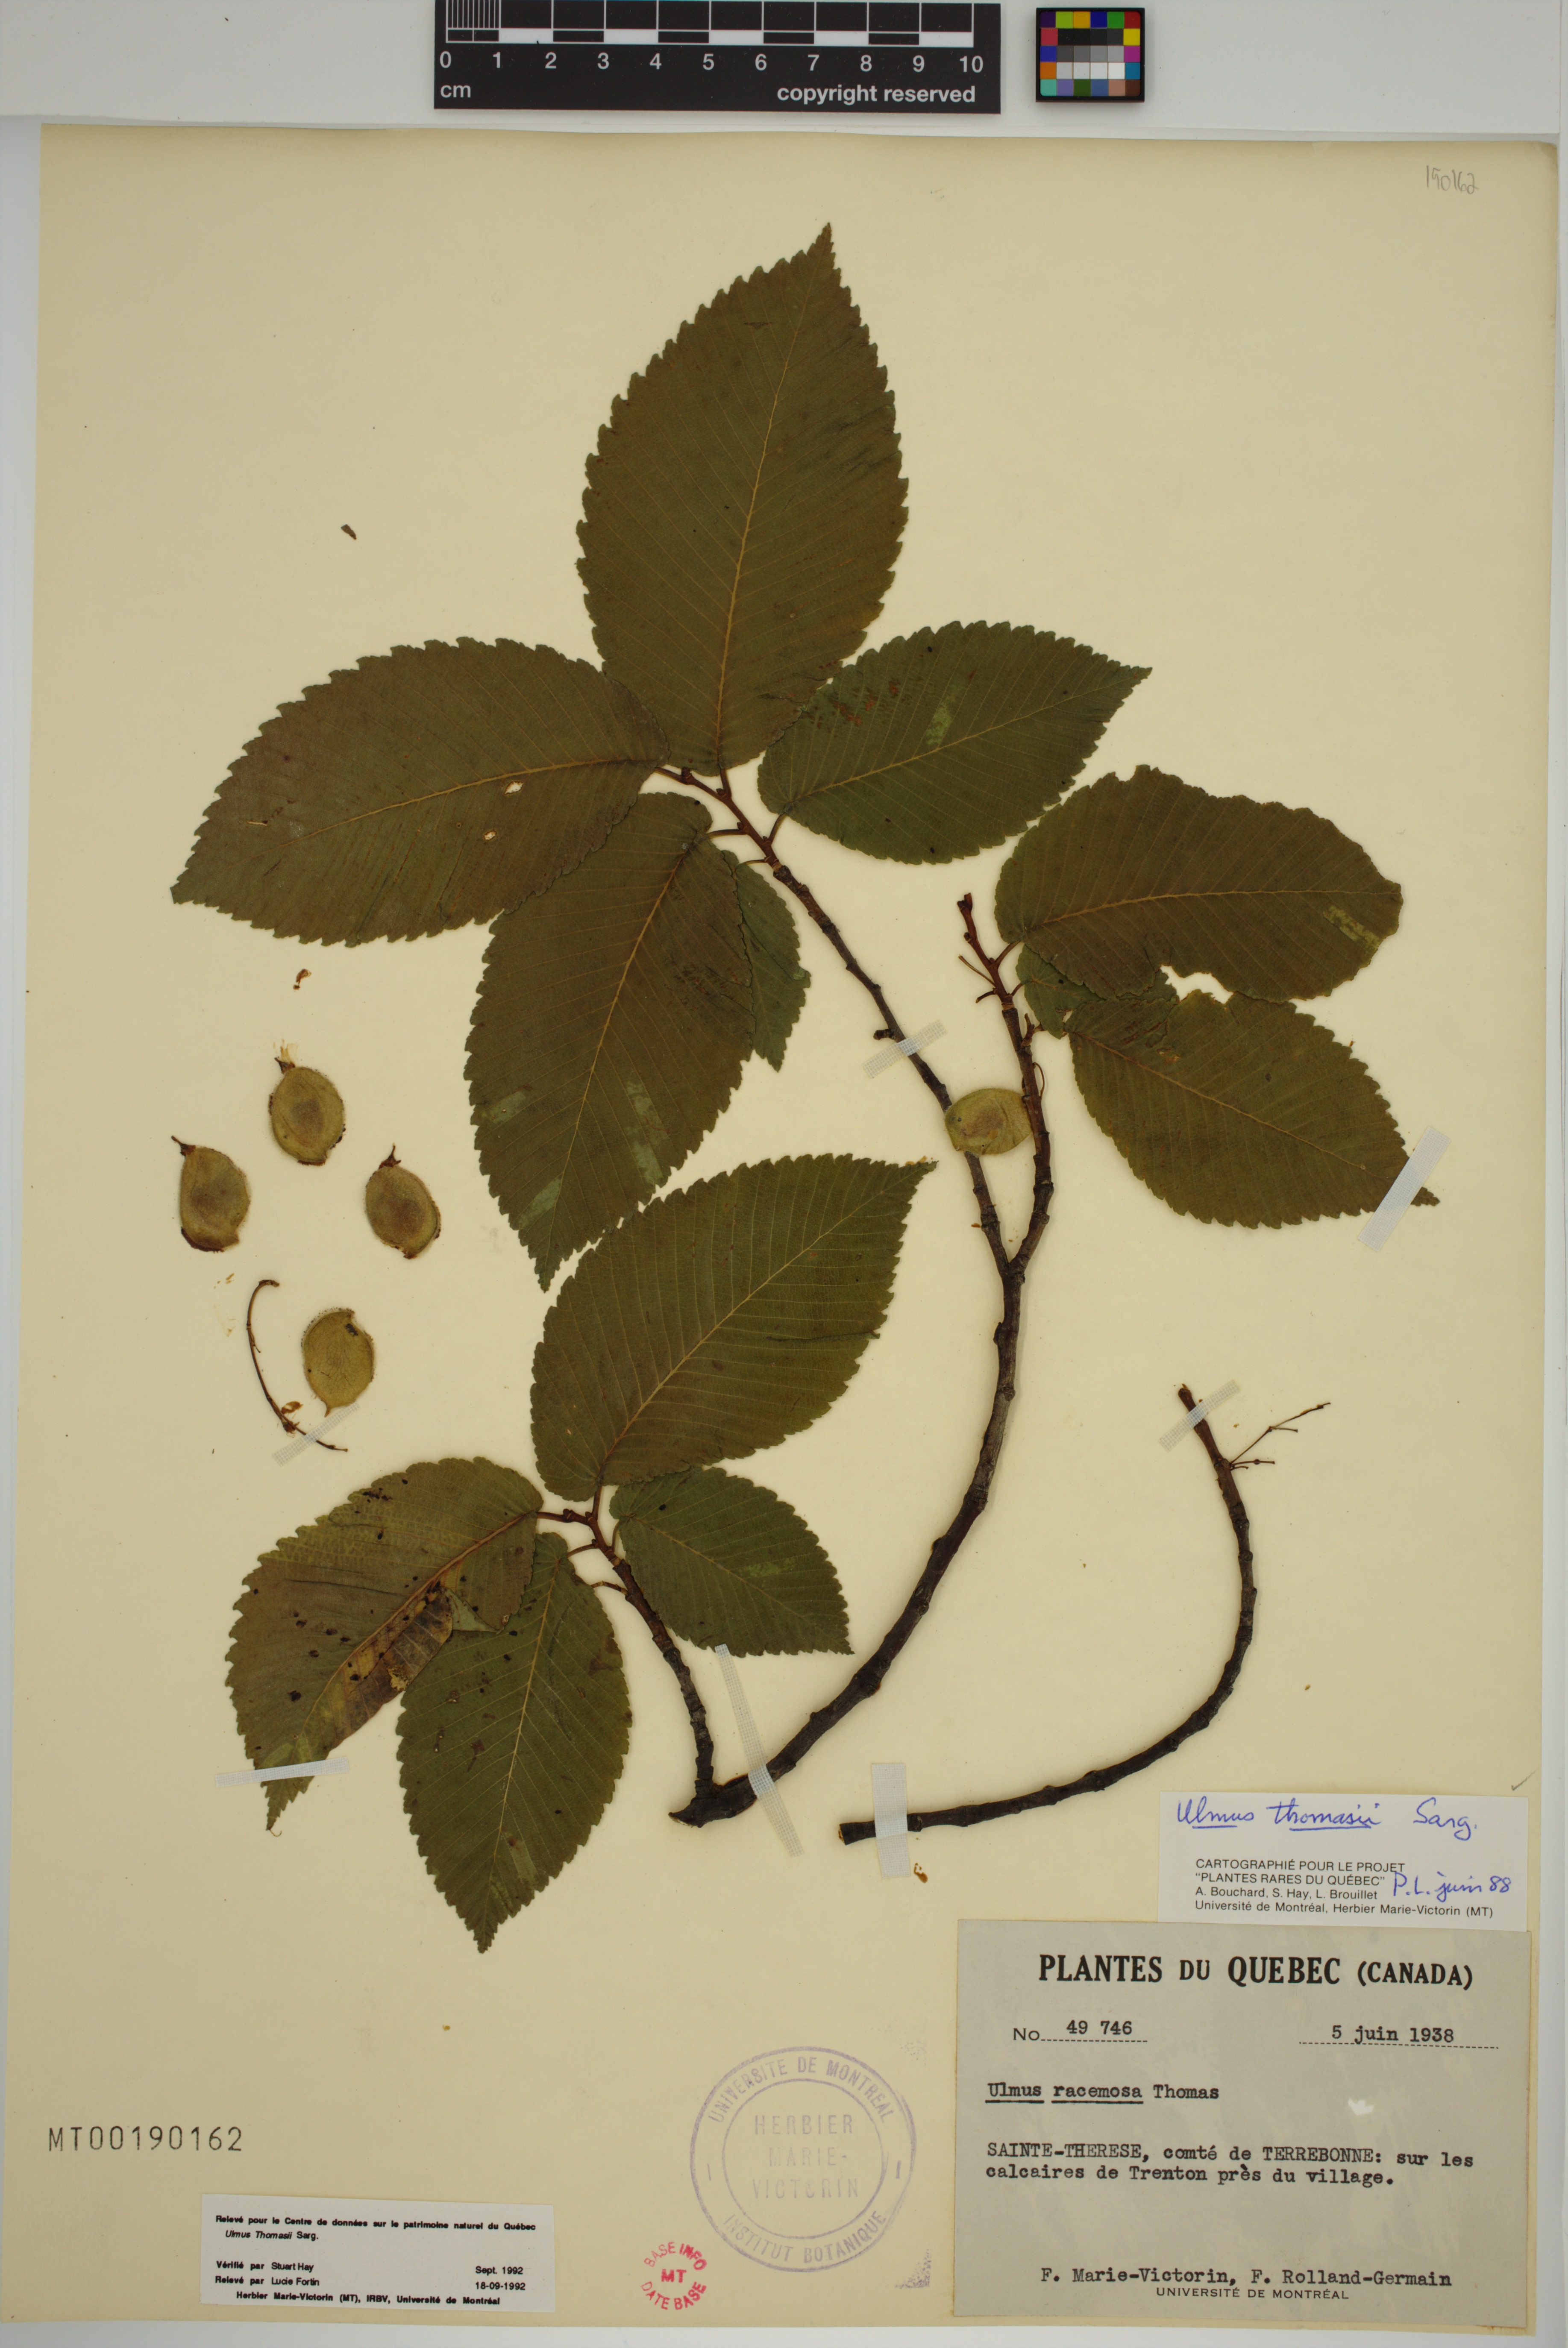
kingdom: Plantae
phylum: Tracheophyta
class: Magnoliopsida
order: Rosales
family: Ulmaceae
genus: Ulmus
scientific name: Ulmus thomasii
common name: Rock elm
